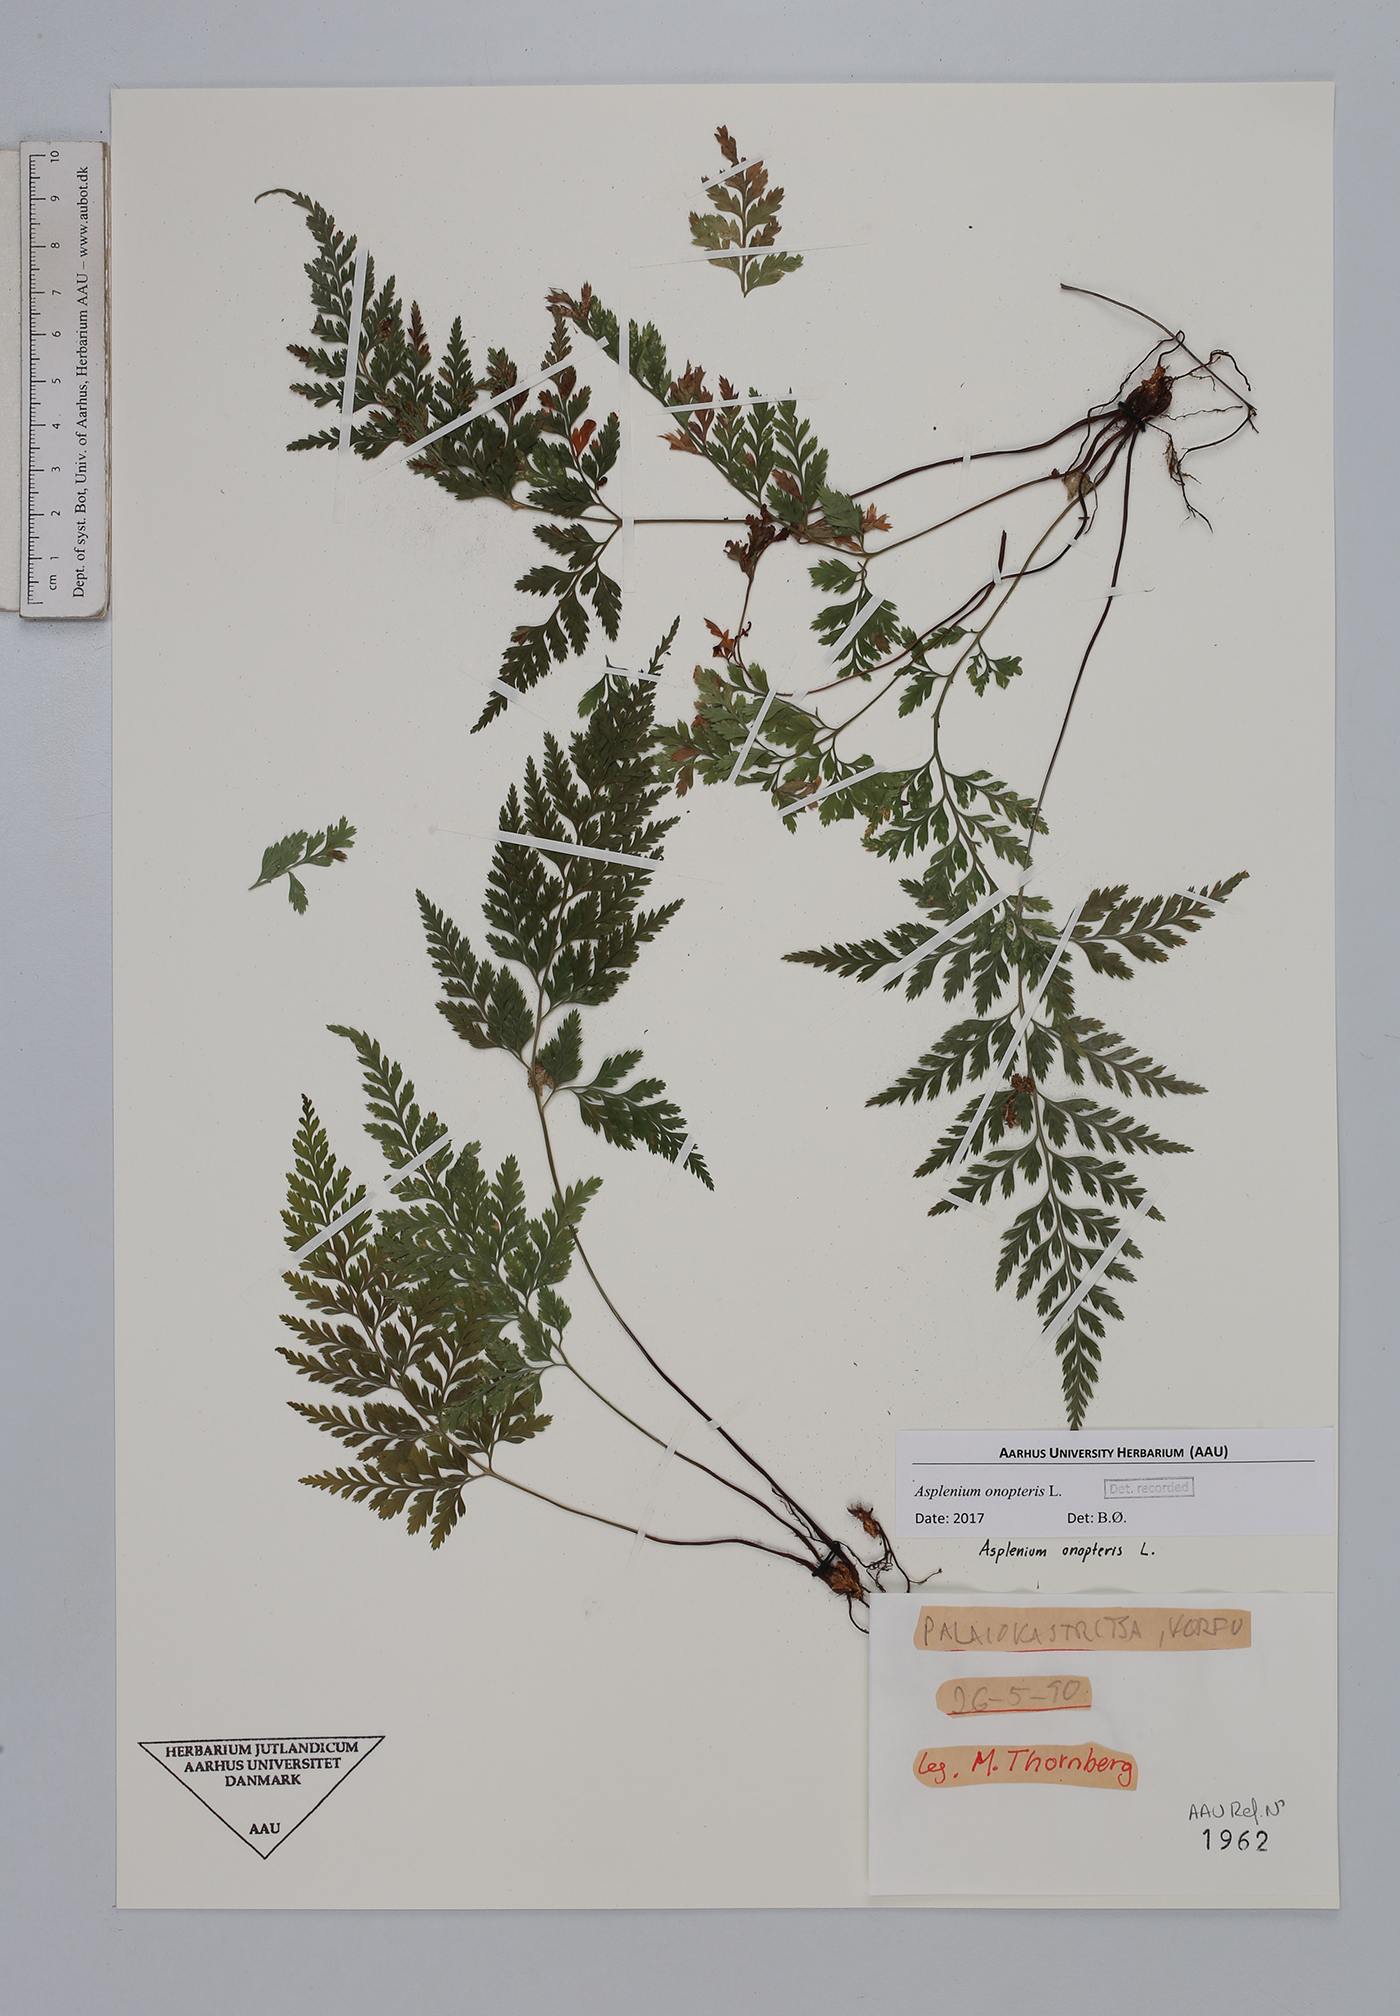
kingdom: Plantae
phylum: Tracheophyta
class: Polypodiopsida
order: Polypodiales
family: Aspleniaceae
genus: Asplenium
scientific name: Asplenium onopteris
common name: Irish spleenwort
